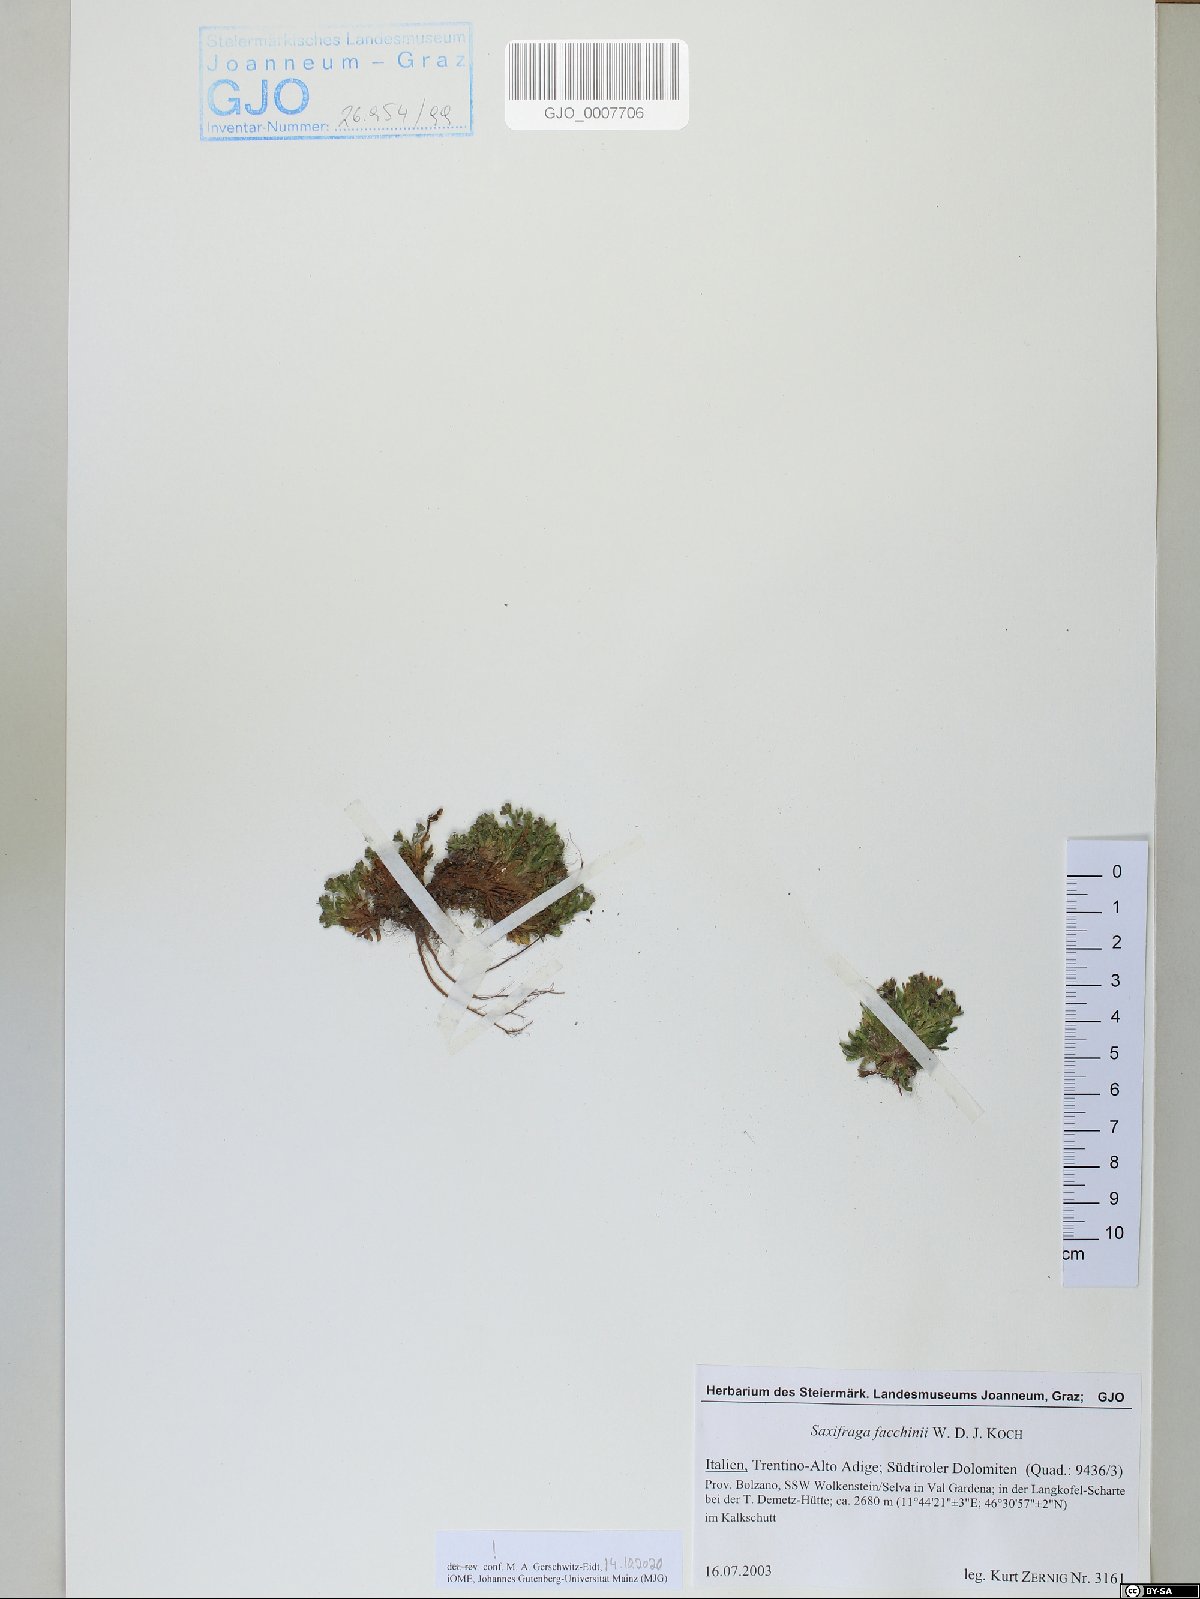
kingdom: Plantae
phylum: Tracheophyta
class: Magnoliopsida
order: Saxifragales
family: Saxifragaceae
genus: Saxifraga
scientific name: Saxifraga facchinii
